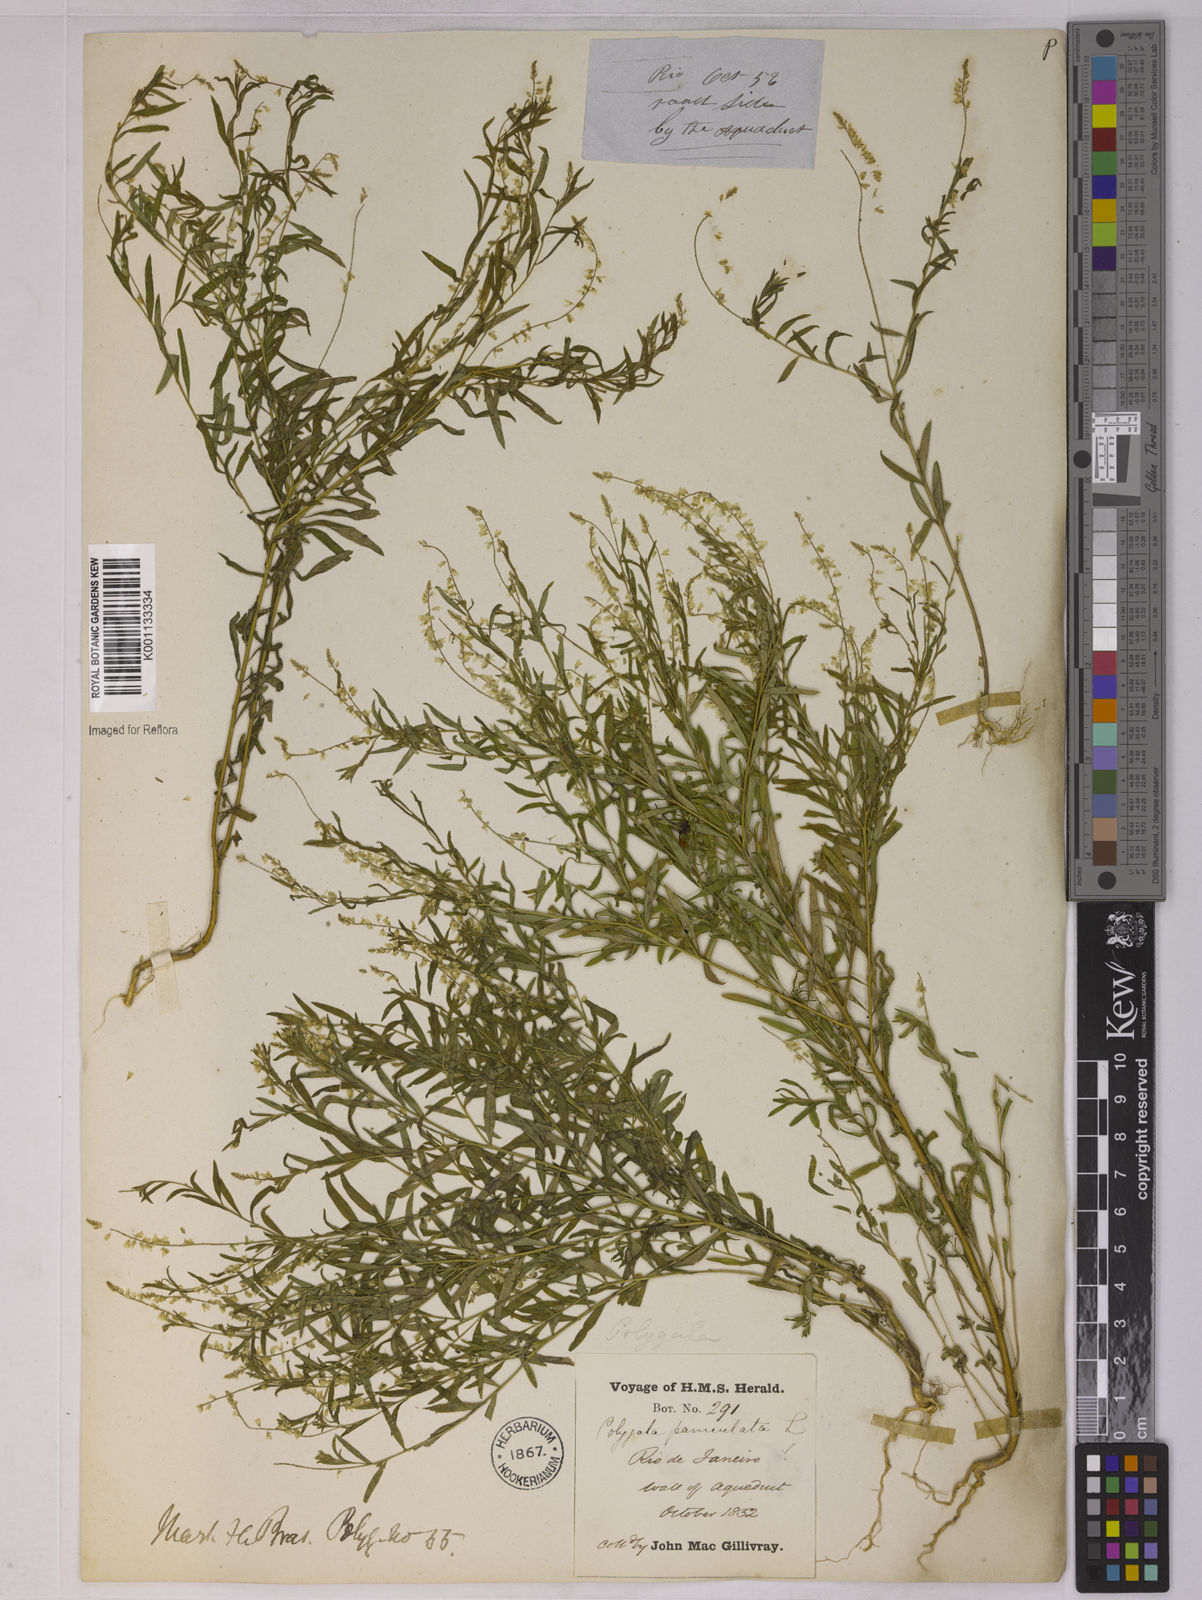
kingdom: Plantae
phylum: Tracheophyta
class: Magnoliopsida
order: Fabales
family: Polygalaceae
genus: Polygala
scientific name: Polygala paniculata
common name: Orosne
